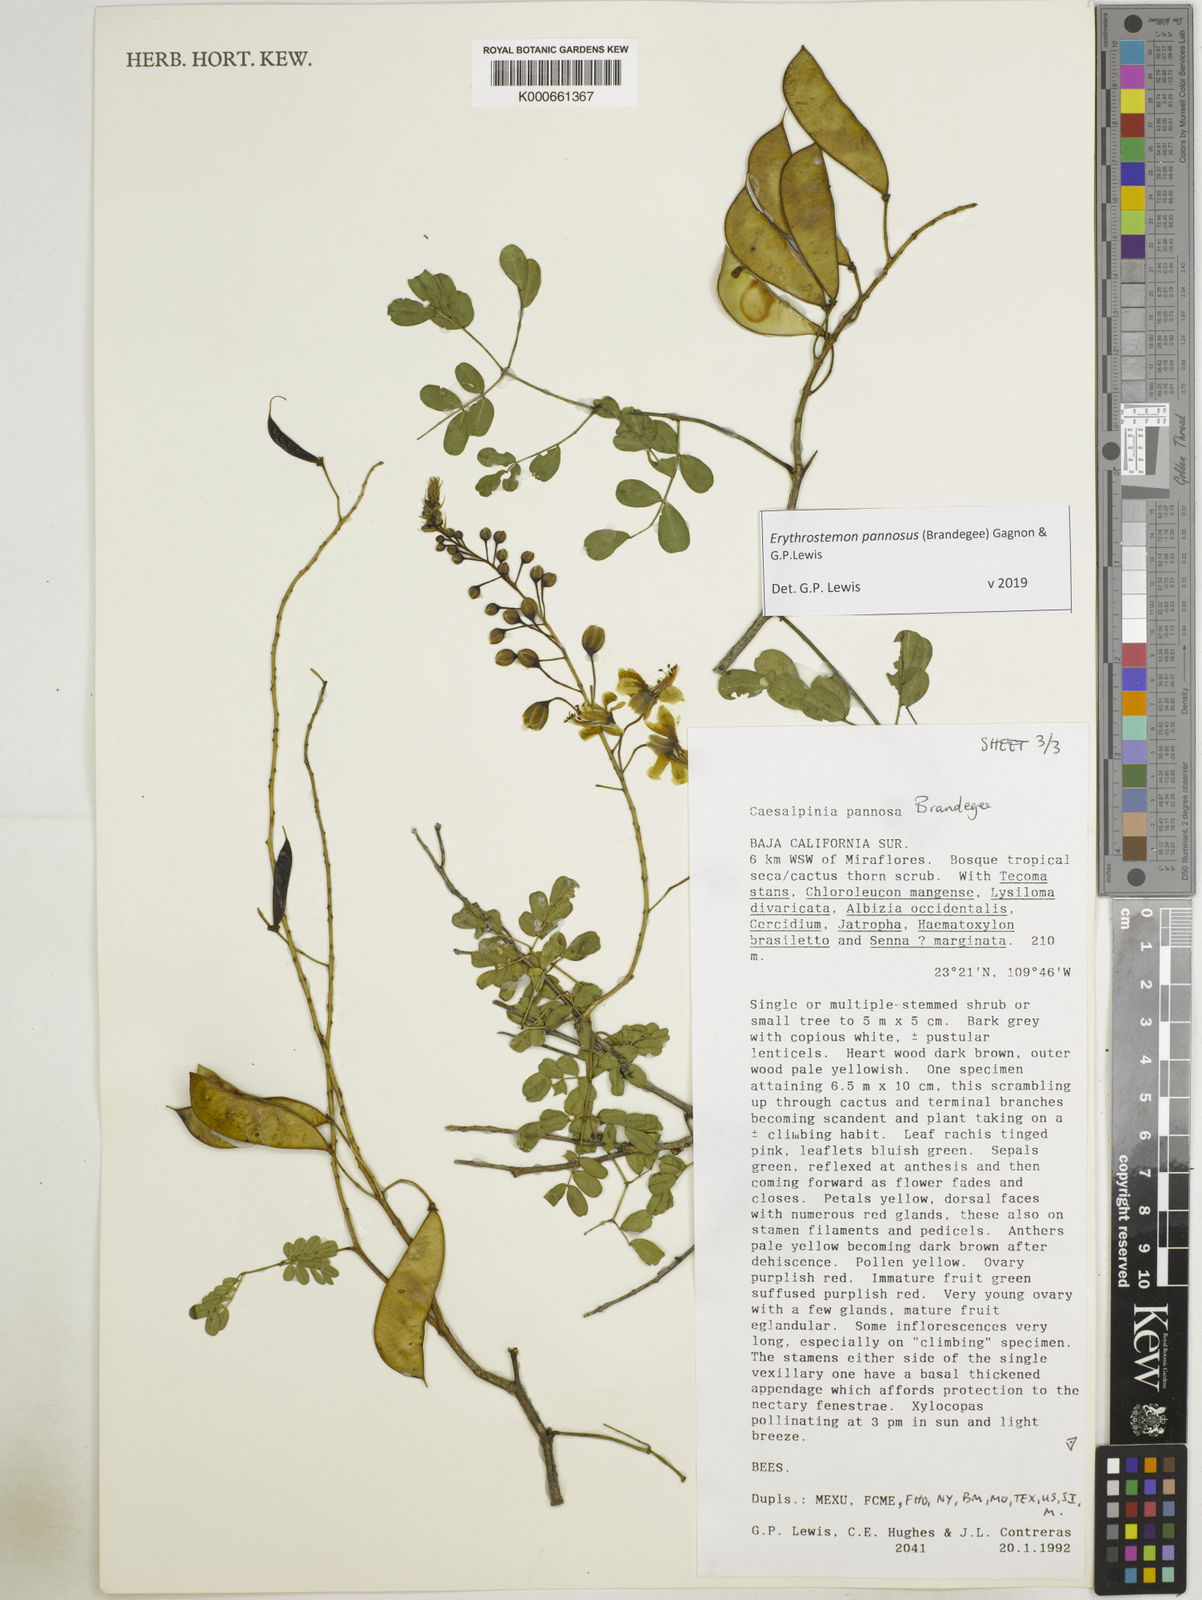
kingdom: Plantae
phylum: Tracheophyta
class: Magnoliopsida
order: Fabales
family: Fabaceae
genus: Erythrostemon
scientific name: Erythrostemon pannosus
